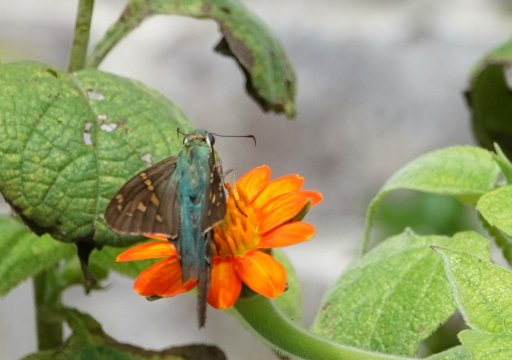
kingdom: Animalia
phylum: Arthropoda
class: Insecta
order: Lepidoptera
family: Hesperiidae
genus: Urbanus
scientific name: Urbanus proteus
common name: Long-tailed Skipper
